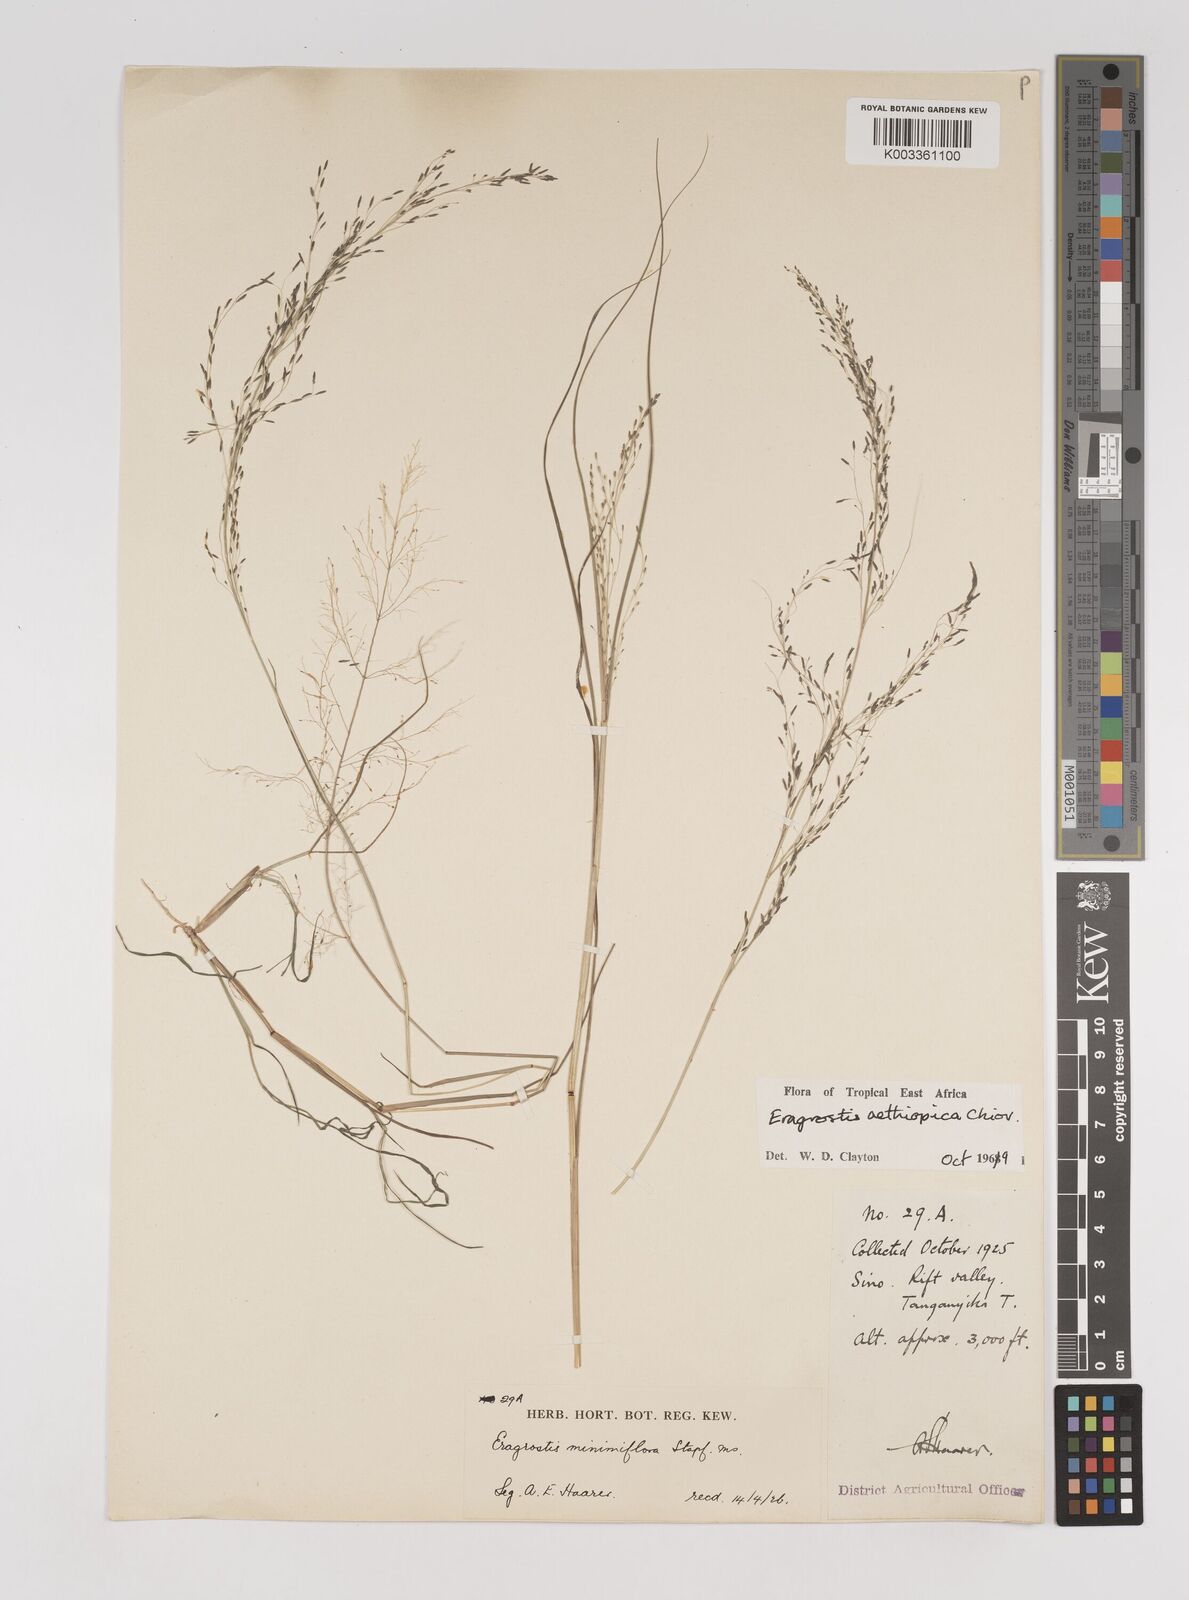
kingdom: Plantae
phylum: Tracheophyta
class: Liliopsida
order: Poales
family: Poaceae
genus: Eragrostis
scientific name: Eragrostis aethiopica
